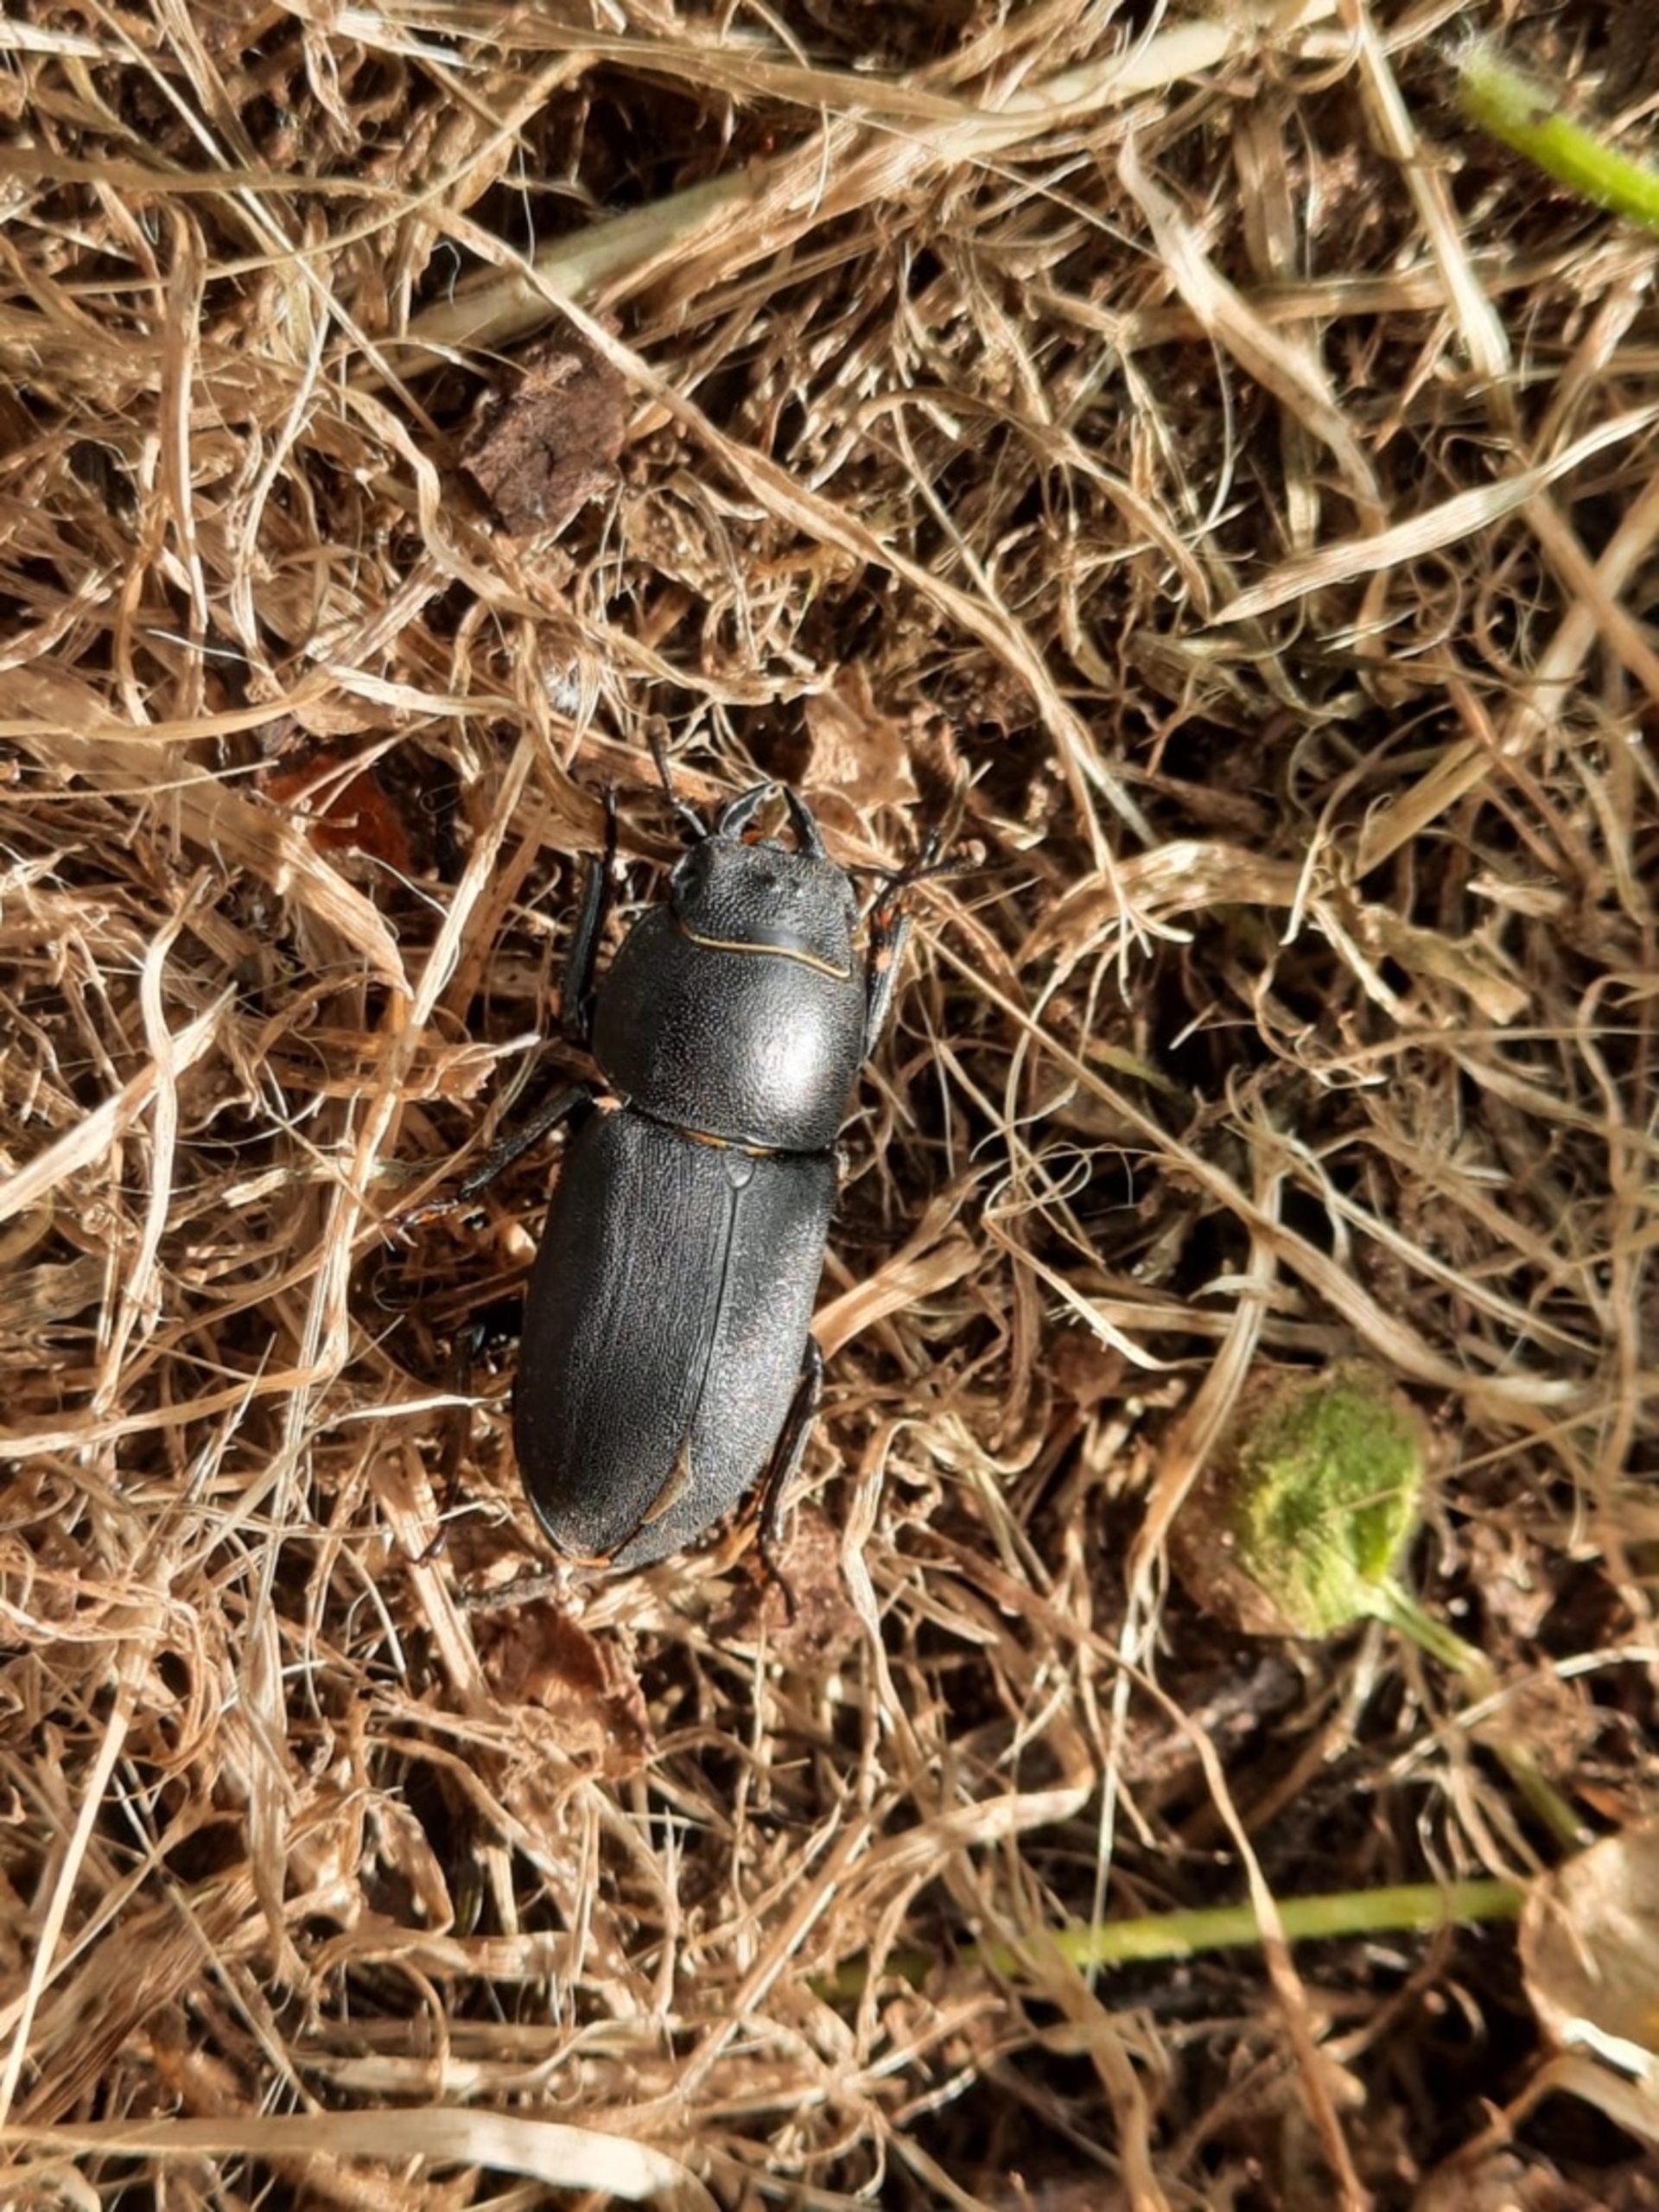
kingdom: Animalia
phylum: Arthropoda
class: Insecta
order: Coleoptera
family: Lucanidae
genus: Dorcus
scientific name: Dorcus parallelipipedus
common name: Bøghjort
